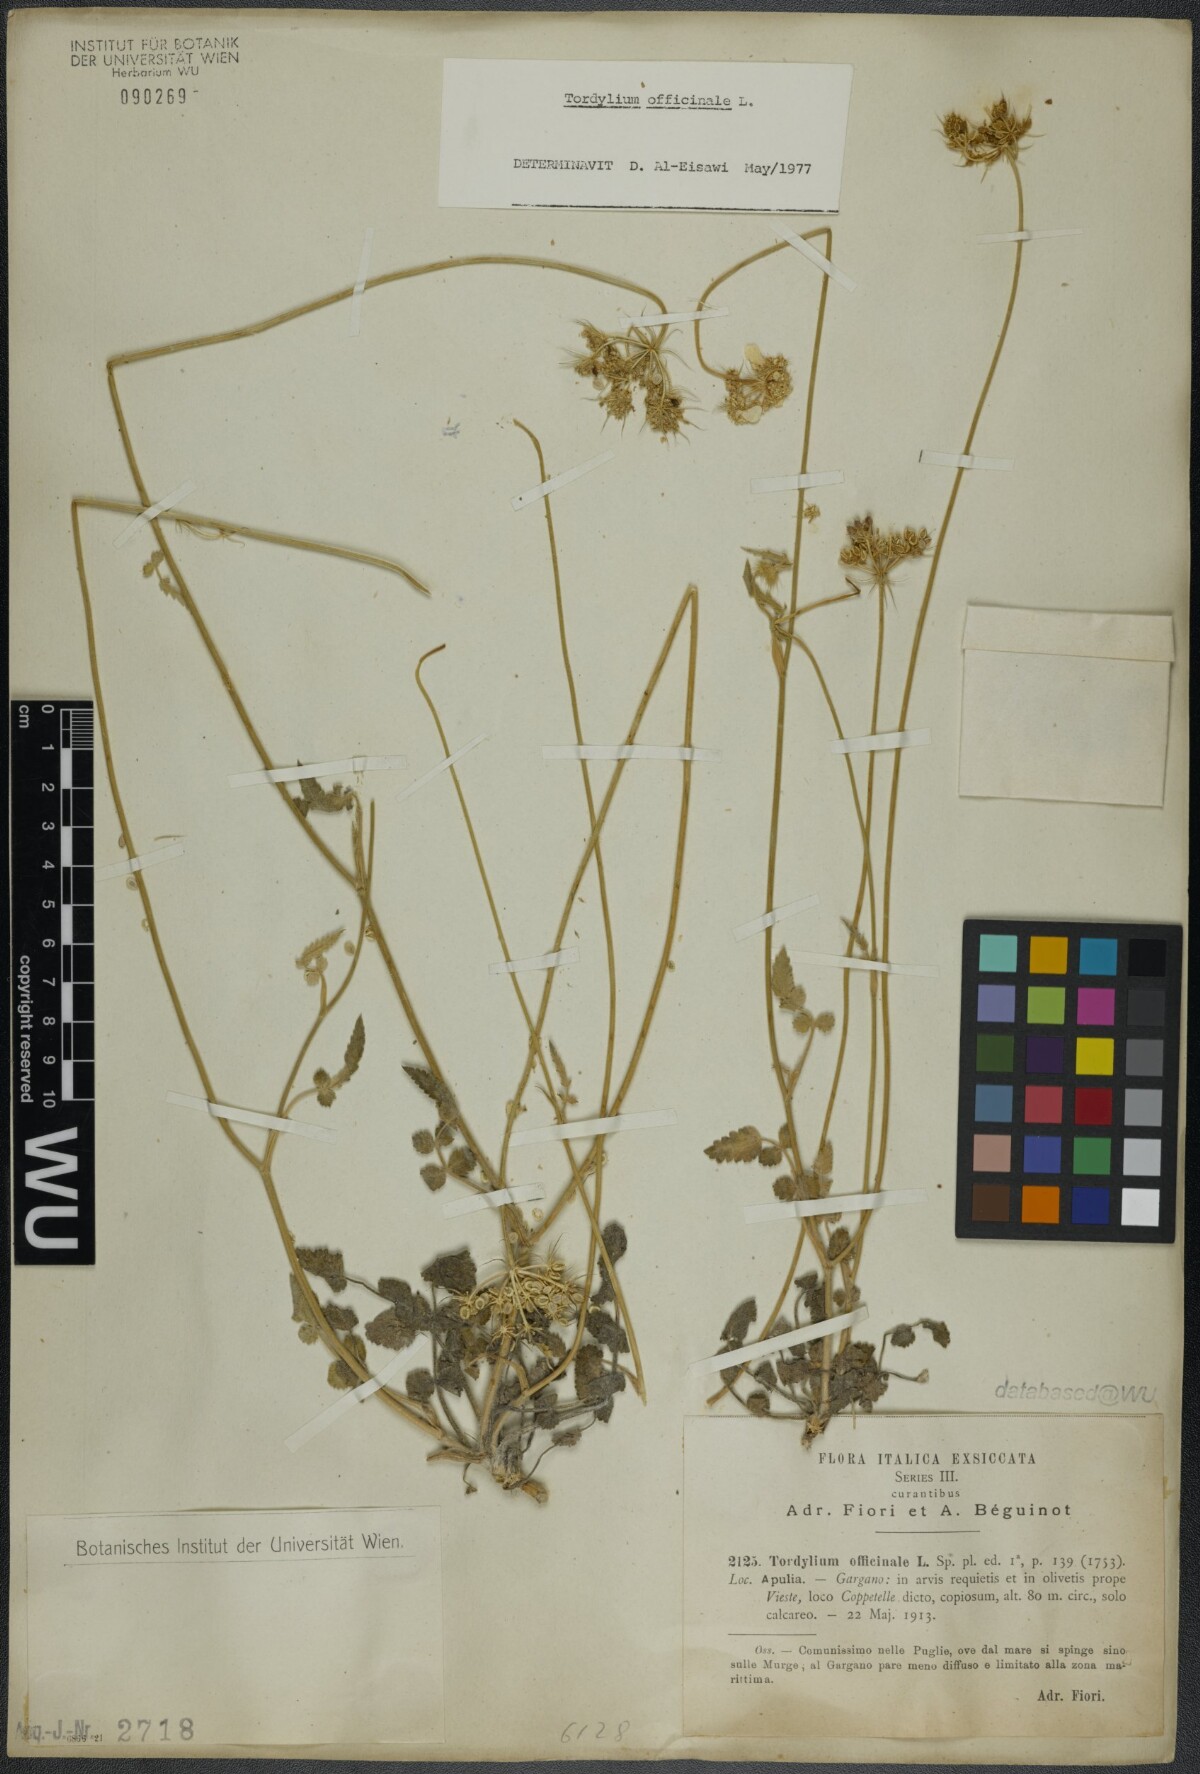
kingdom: Plantae
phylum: Tracheophyta
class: Magnoliopsida
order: Apiales
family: Apiaceae
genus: Tordylium
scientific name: Tordylium officinale
